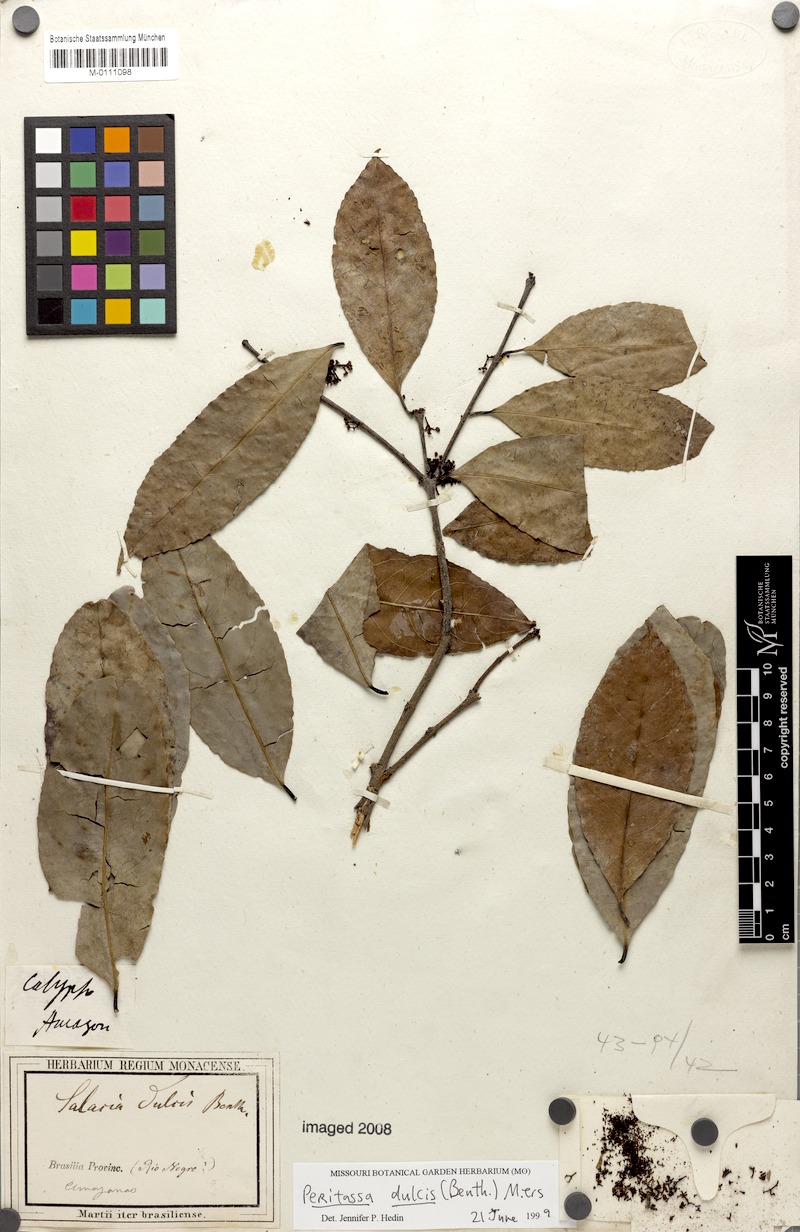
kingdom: Plantae
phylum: Tracheophyta
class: Magnoliopsida
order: Celastrales
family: Celastraceae
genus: Peritassa
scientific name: Peritassa dulcis
